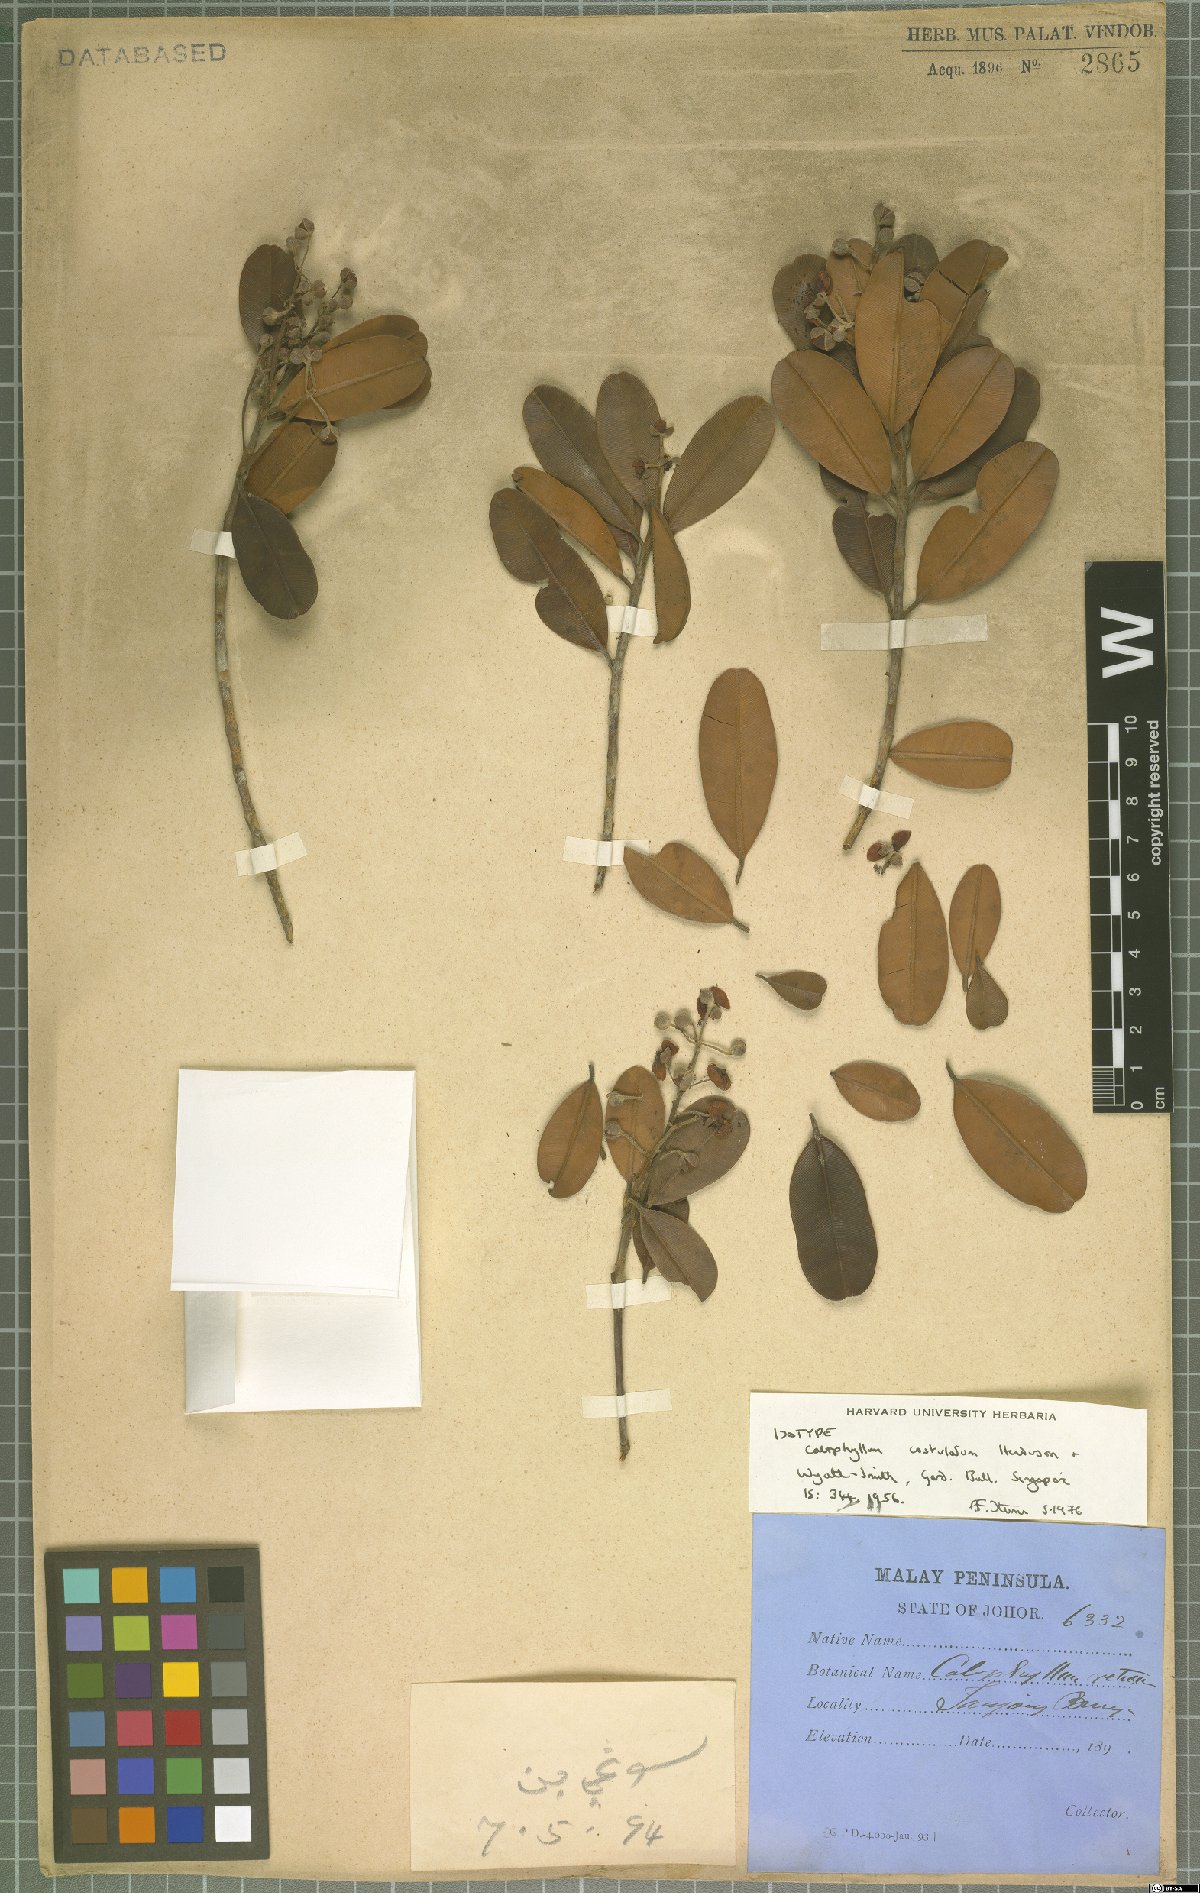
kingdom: Plantae
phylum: Tracheophyta
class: Magnoliopsida
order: Malpighiales
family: Calophyllaceae
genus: Calophyllum
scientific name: Calophyllum costulatum
